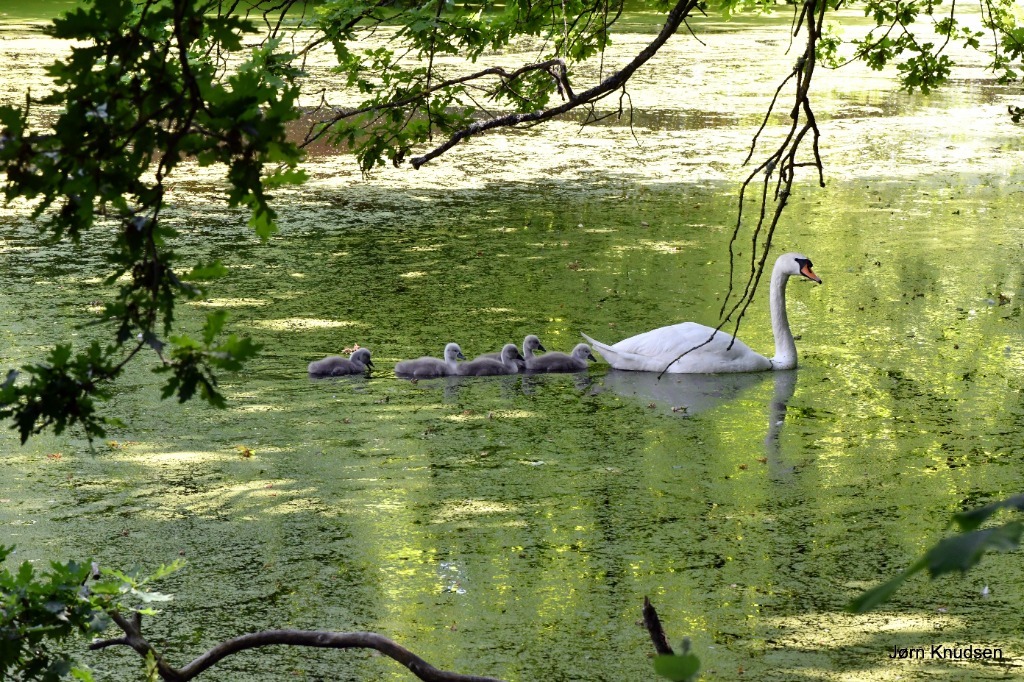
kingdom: Animalia
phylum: Chordata
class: Aves
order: Anseriformes
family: Anatidae
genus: Cygnus
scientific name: Cygnus olor
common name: Knopsvane
